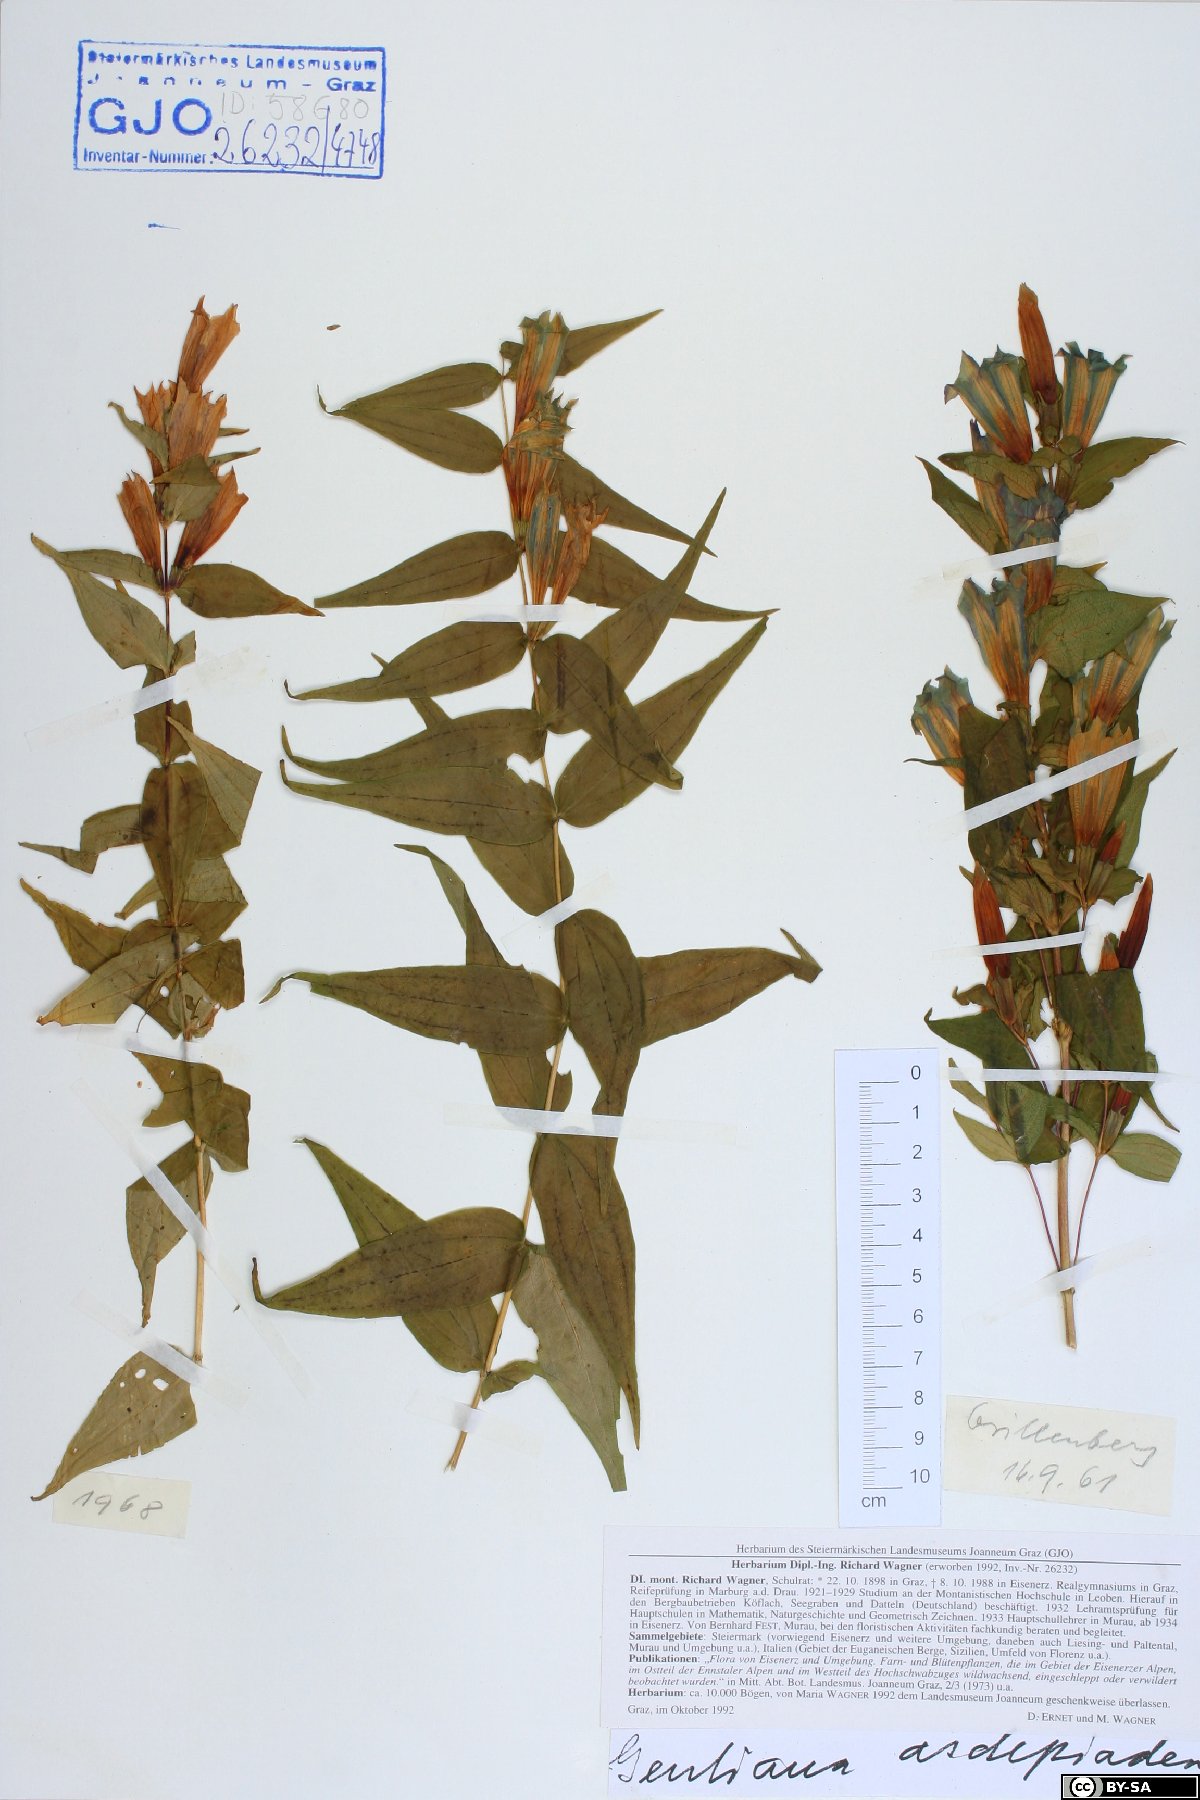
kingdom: Plantae
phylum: Tracheophyta
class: Magnoliopsida
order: Gentianales
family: Gentianaceae
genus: Gentiana
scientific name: Gentiana asclepiadea
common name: Willow gentian
